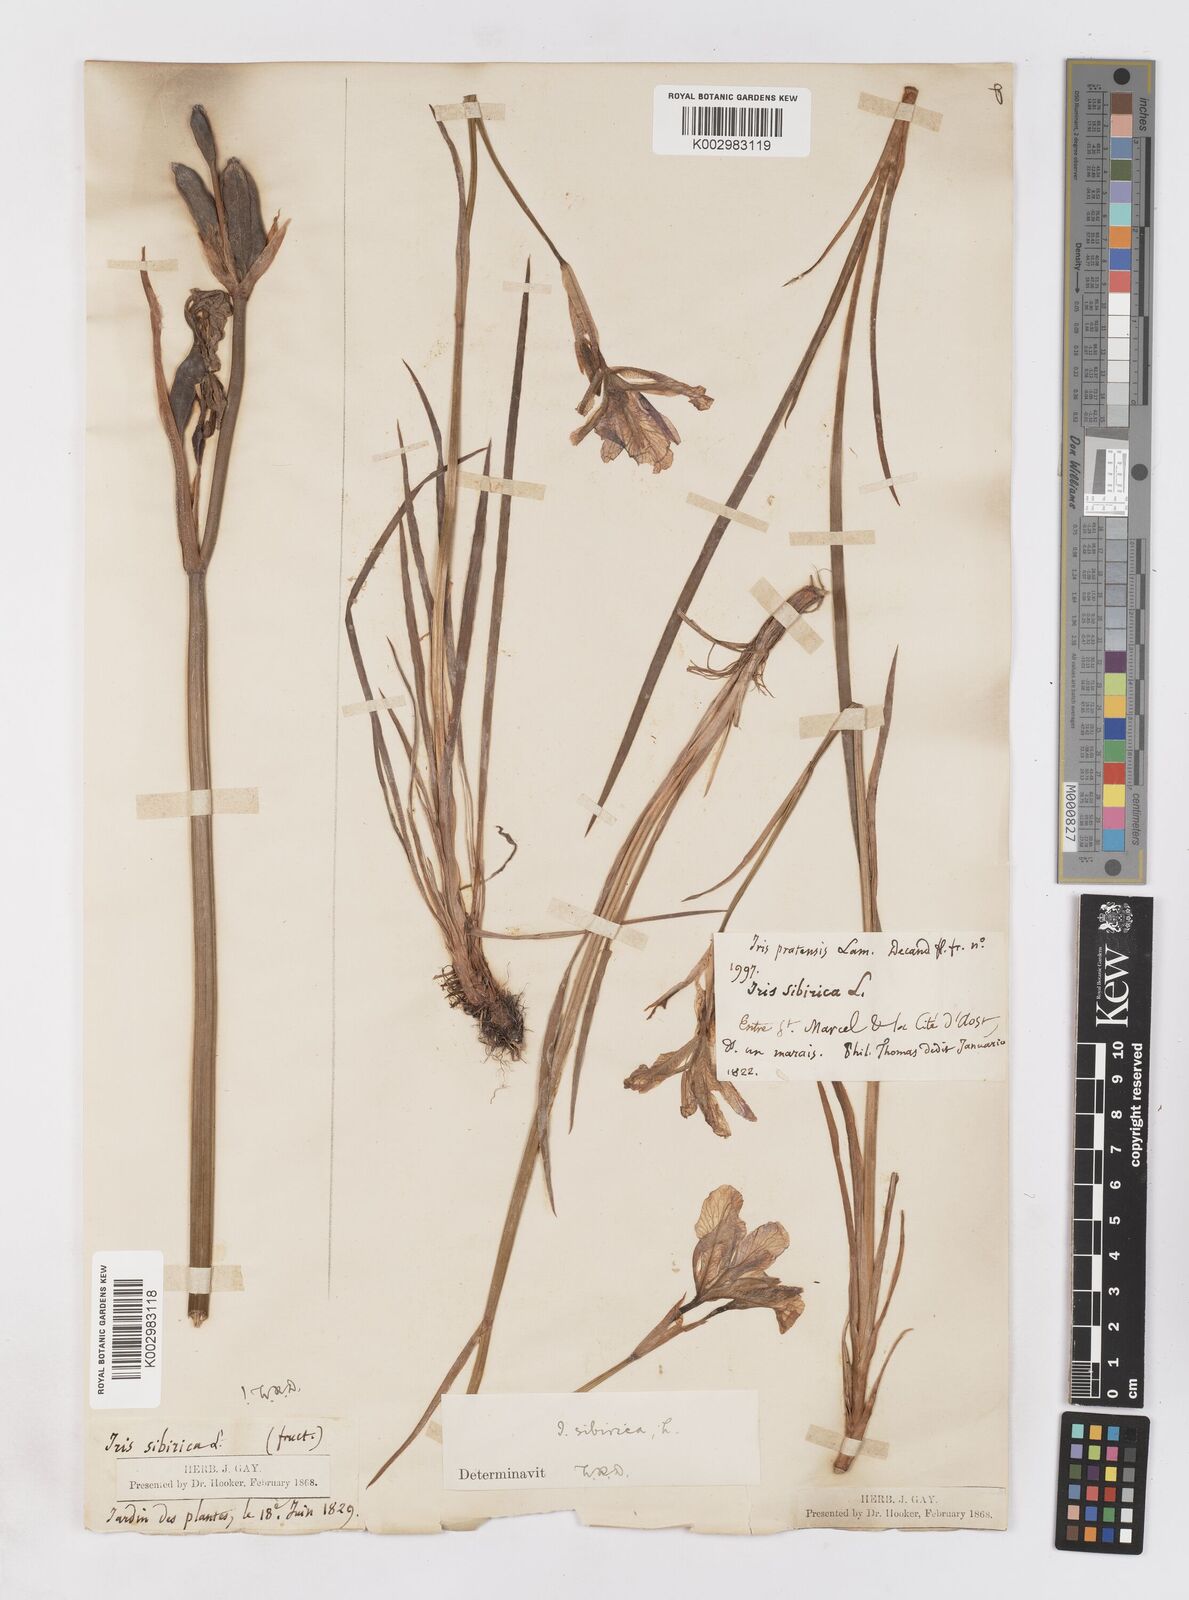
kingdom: Plantae
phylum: Tracheophyta
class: Liliopsida
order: Asparagales
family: Iridaceae
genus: Iris
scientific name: Iris sibirica
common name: Siberian iris
